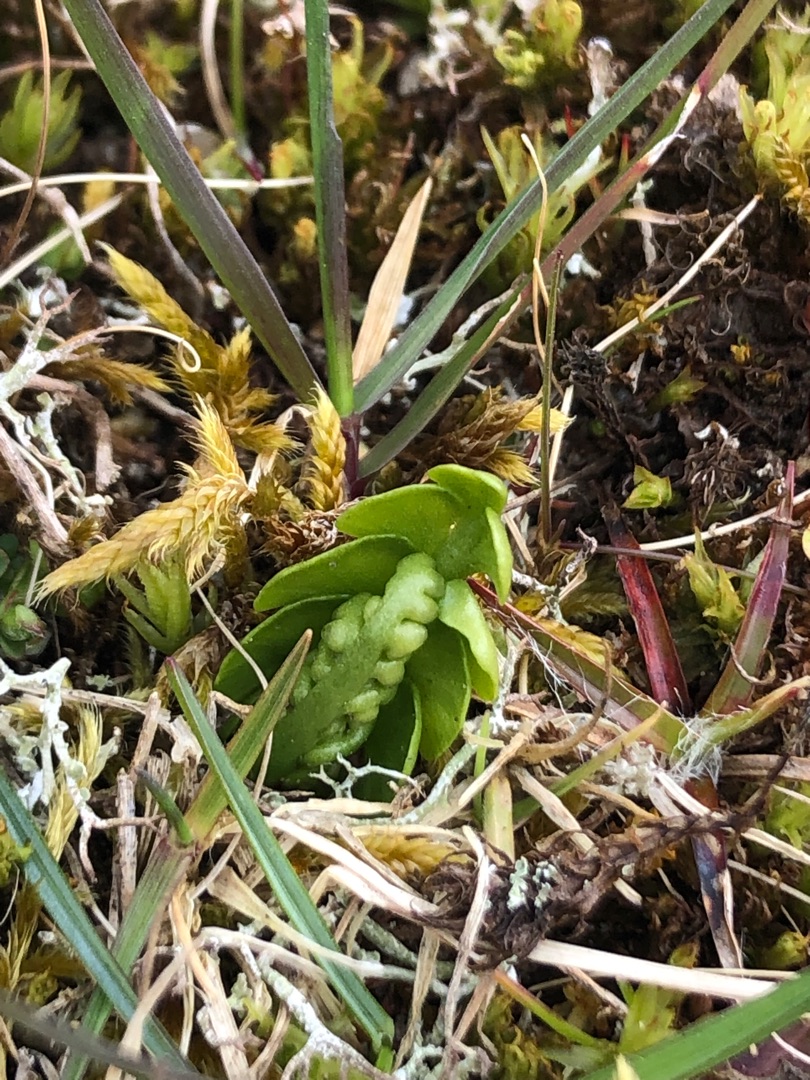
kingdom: Plantae
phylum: Tracheophyta
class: Polypodiopsida
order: Ophioglossales
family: Ophioglossaceae
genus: Botrychium
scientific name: Botrychium lunaria
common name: Almindelig månerude
